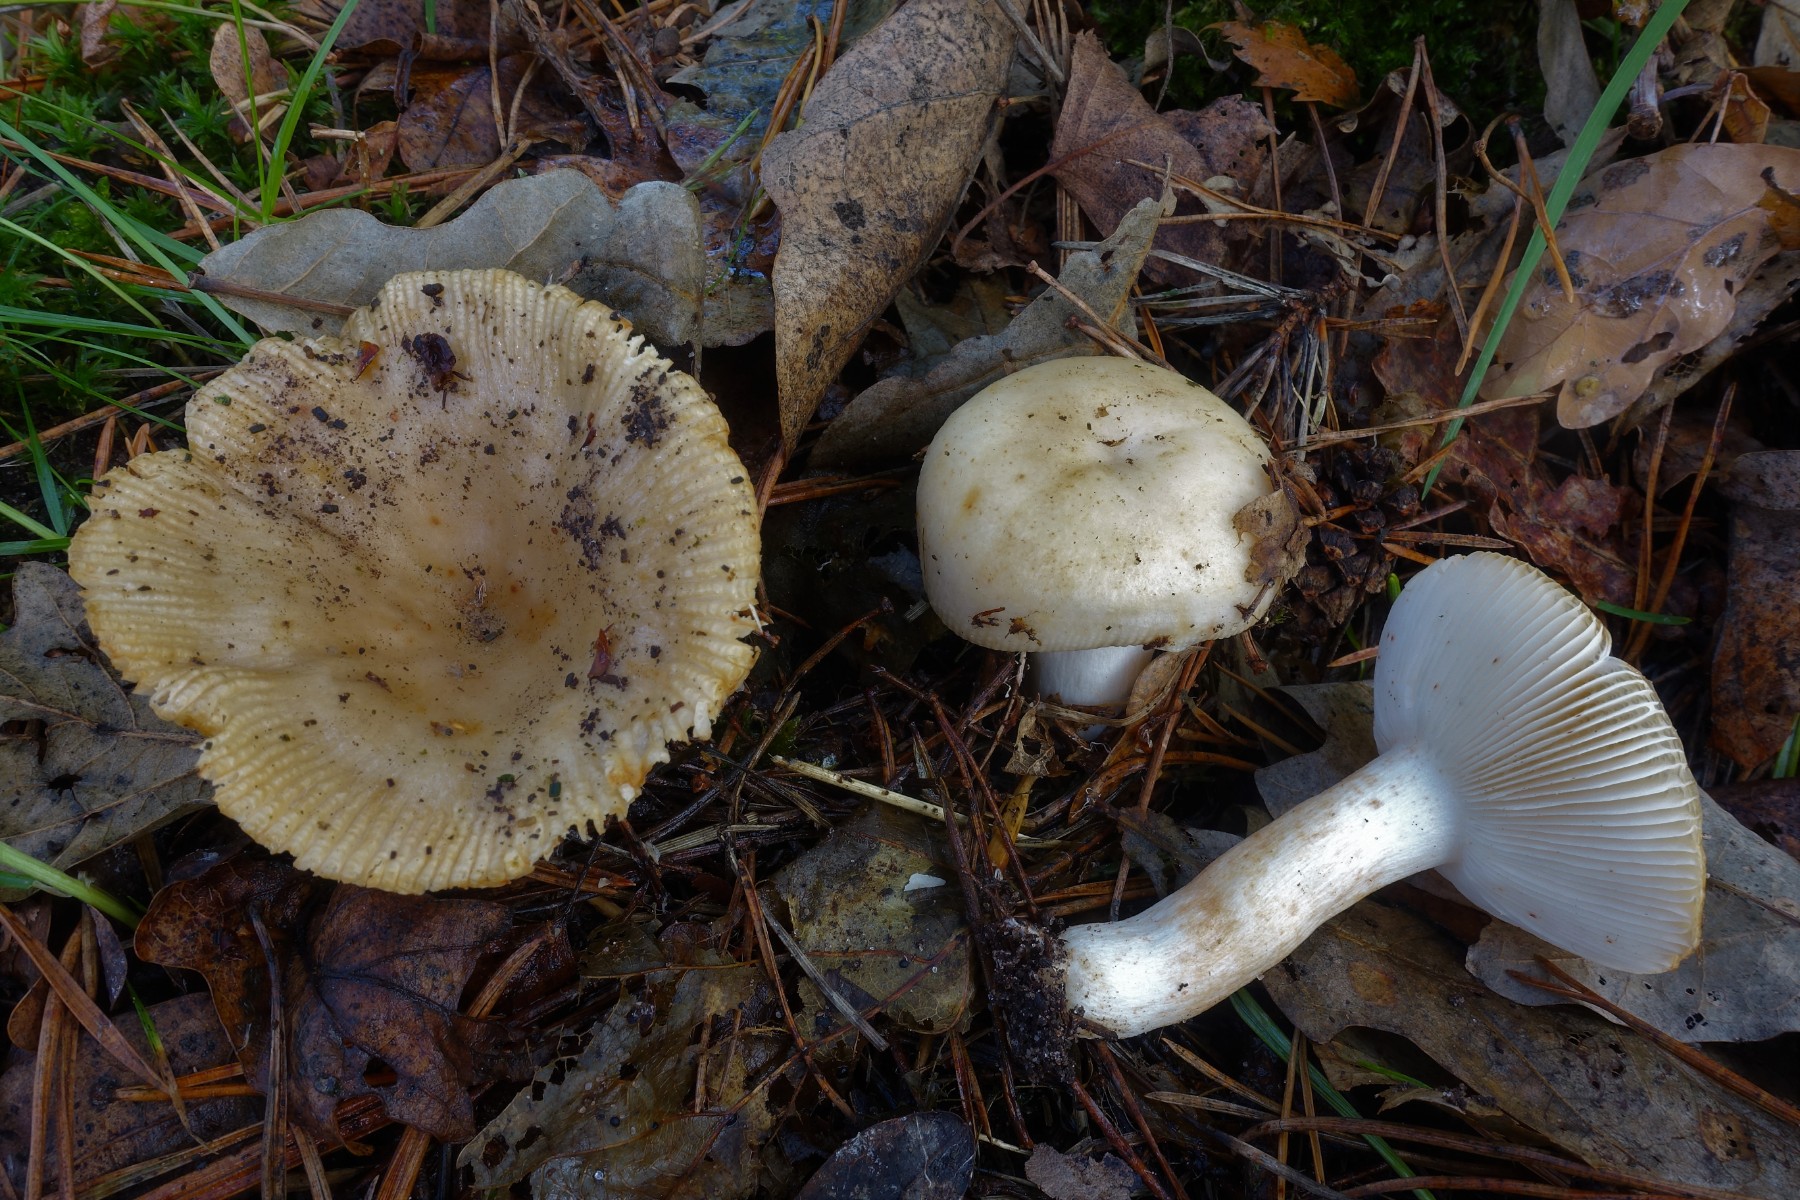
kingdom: Fungi
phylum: Basidiomycota
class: Agaricomycetes
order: Russulales
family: Russulaceae
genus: Russula
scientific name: Russula recondita
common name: mild kam-skørhat
